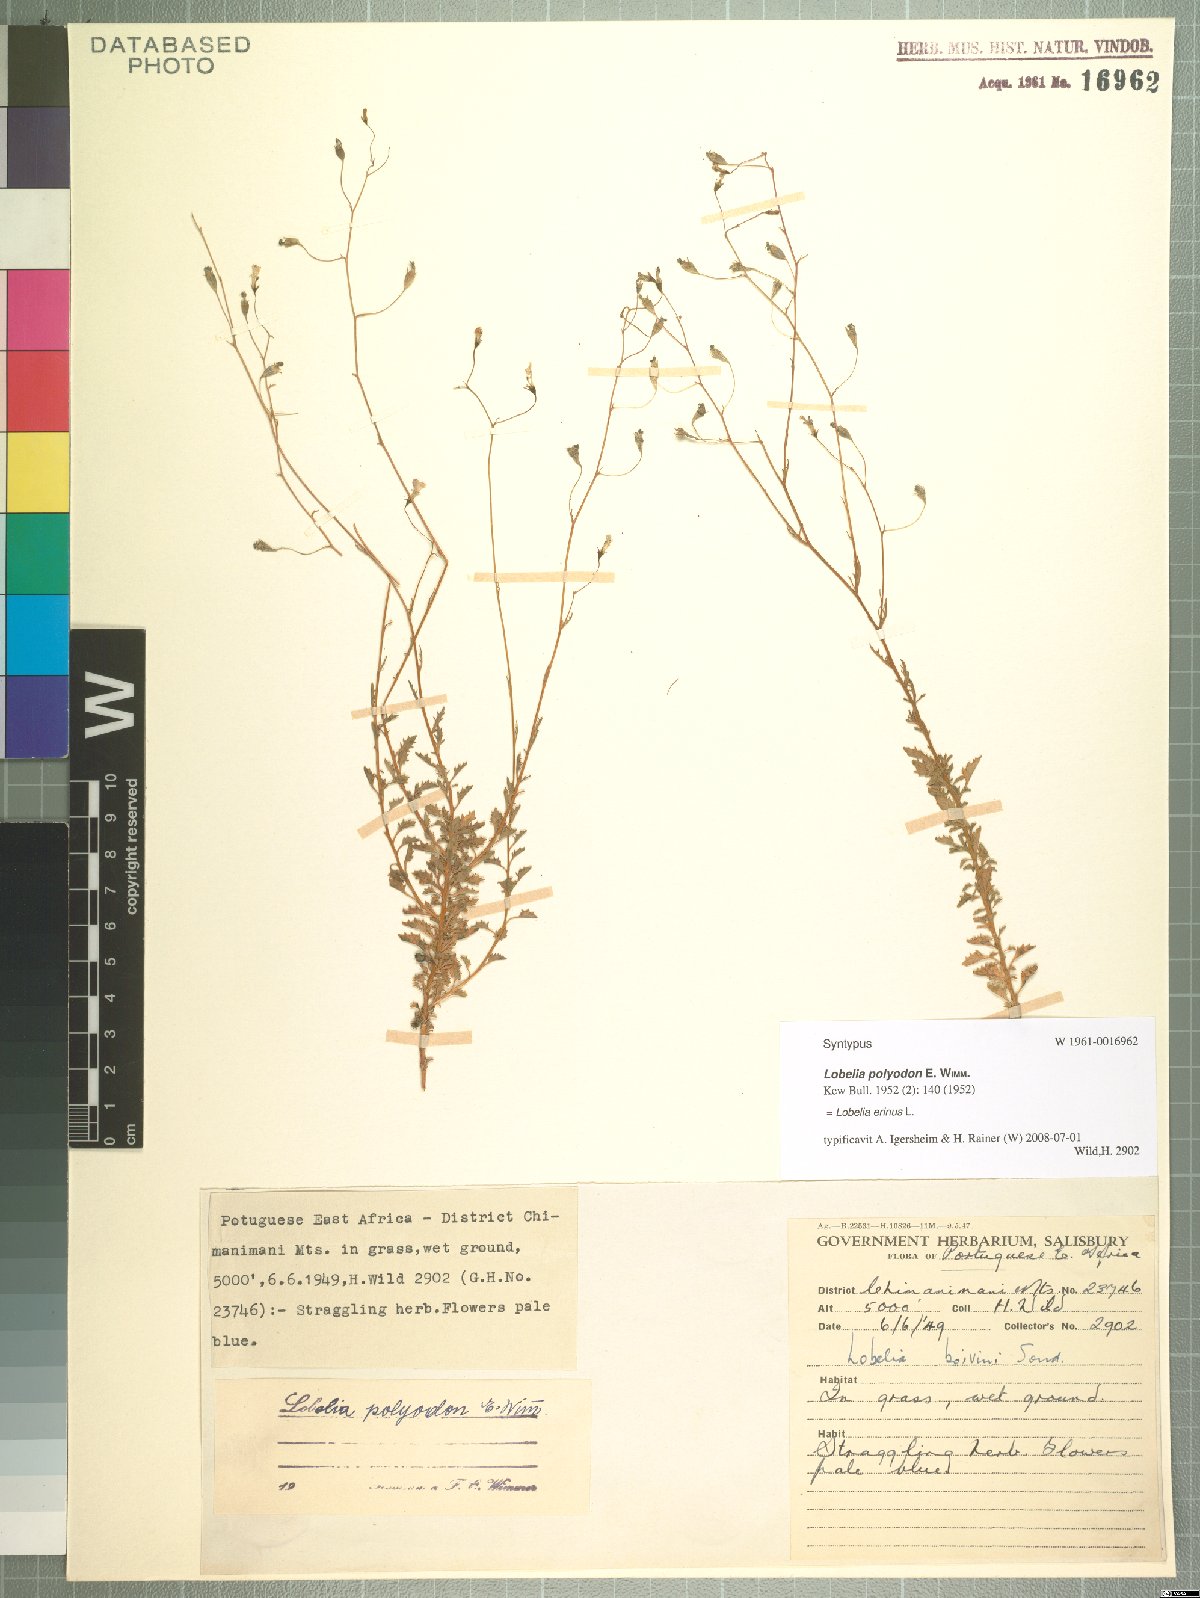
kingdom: Plantae
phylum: Tracheophyta
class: Magnoliopsida
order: Asterales
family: Campanulaceae
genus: Lobelia
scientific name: Lobelia erinus
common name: Edging lobelia
